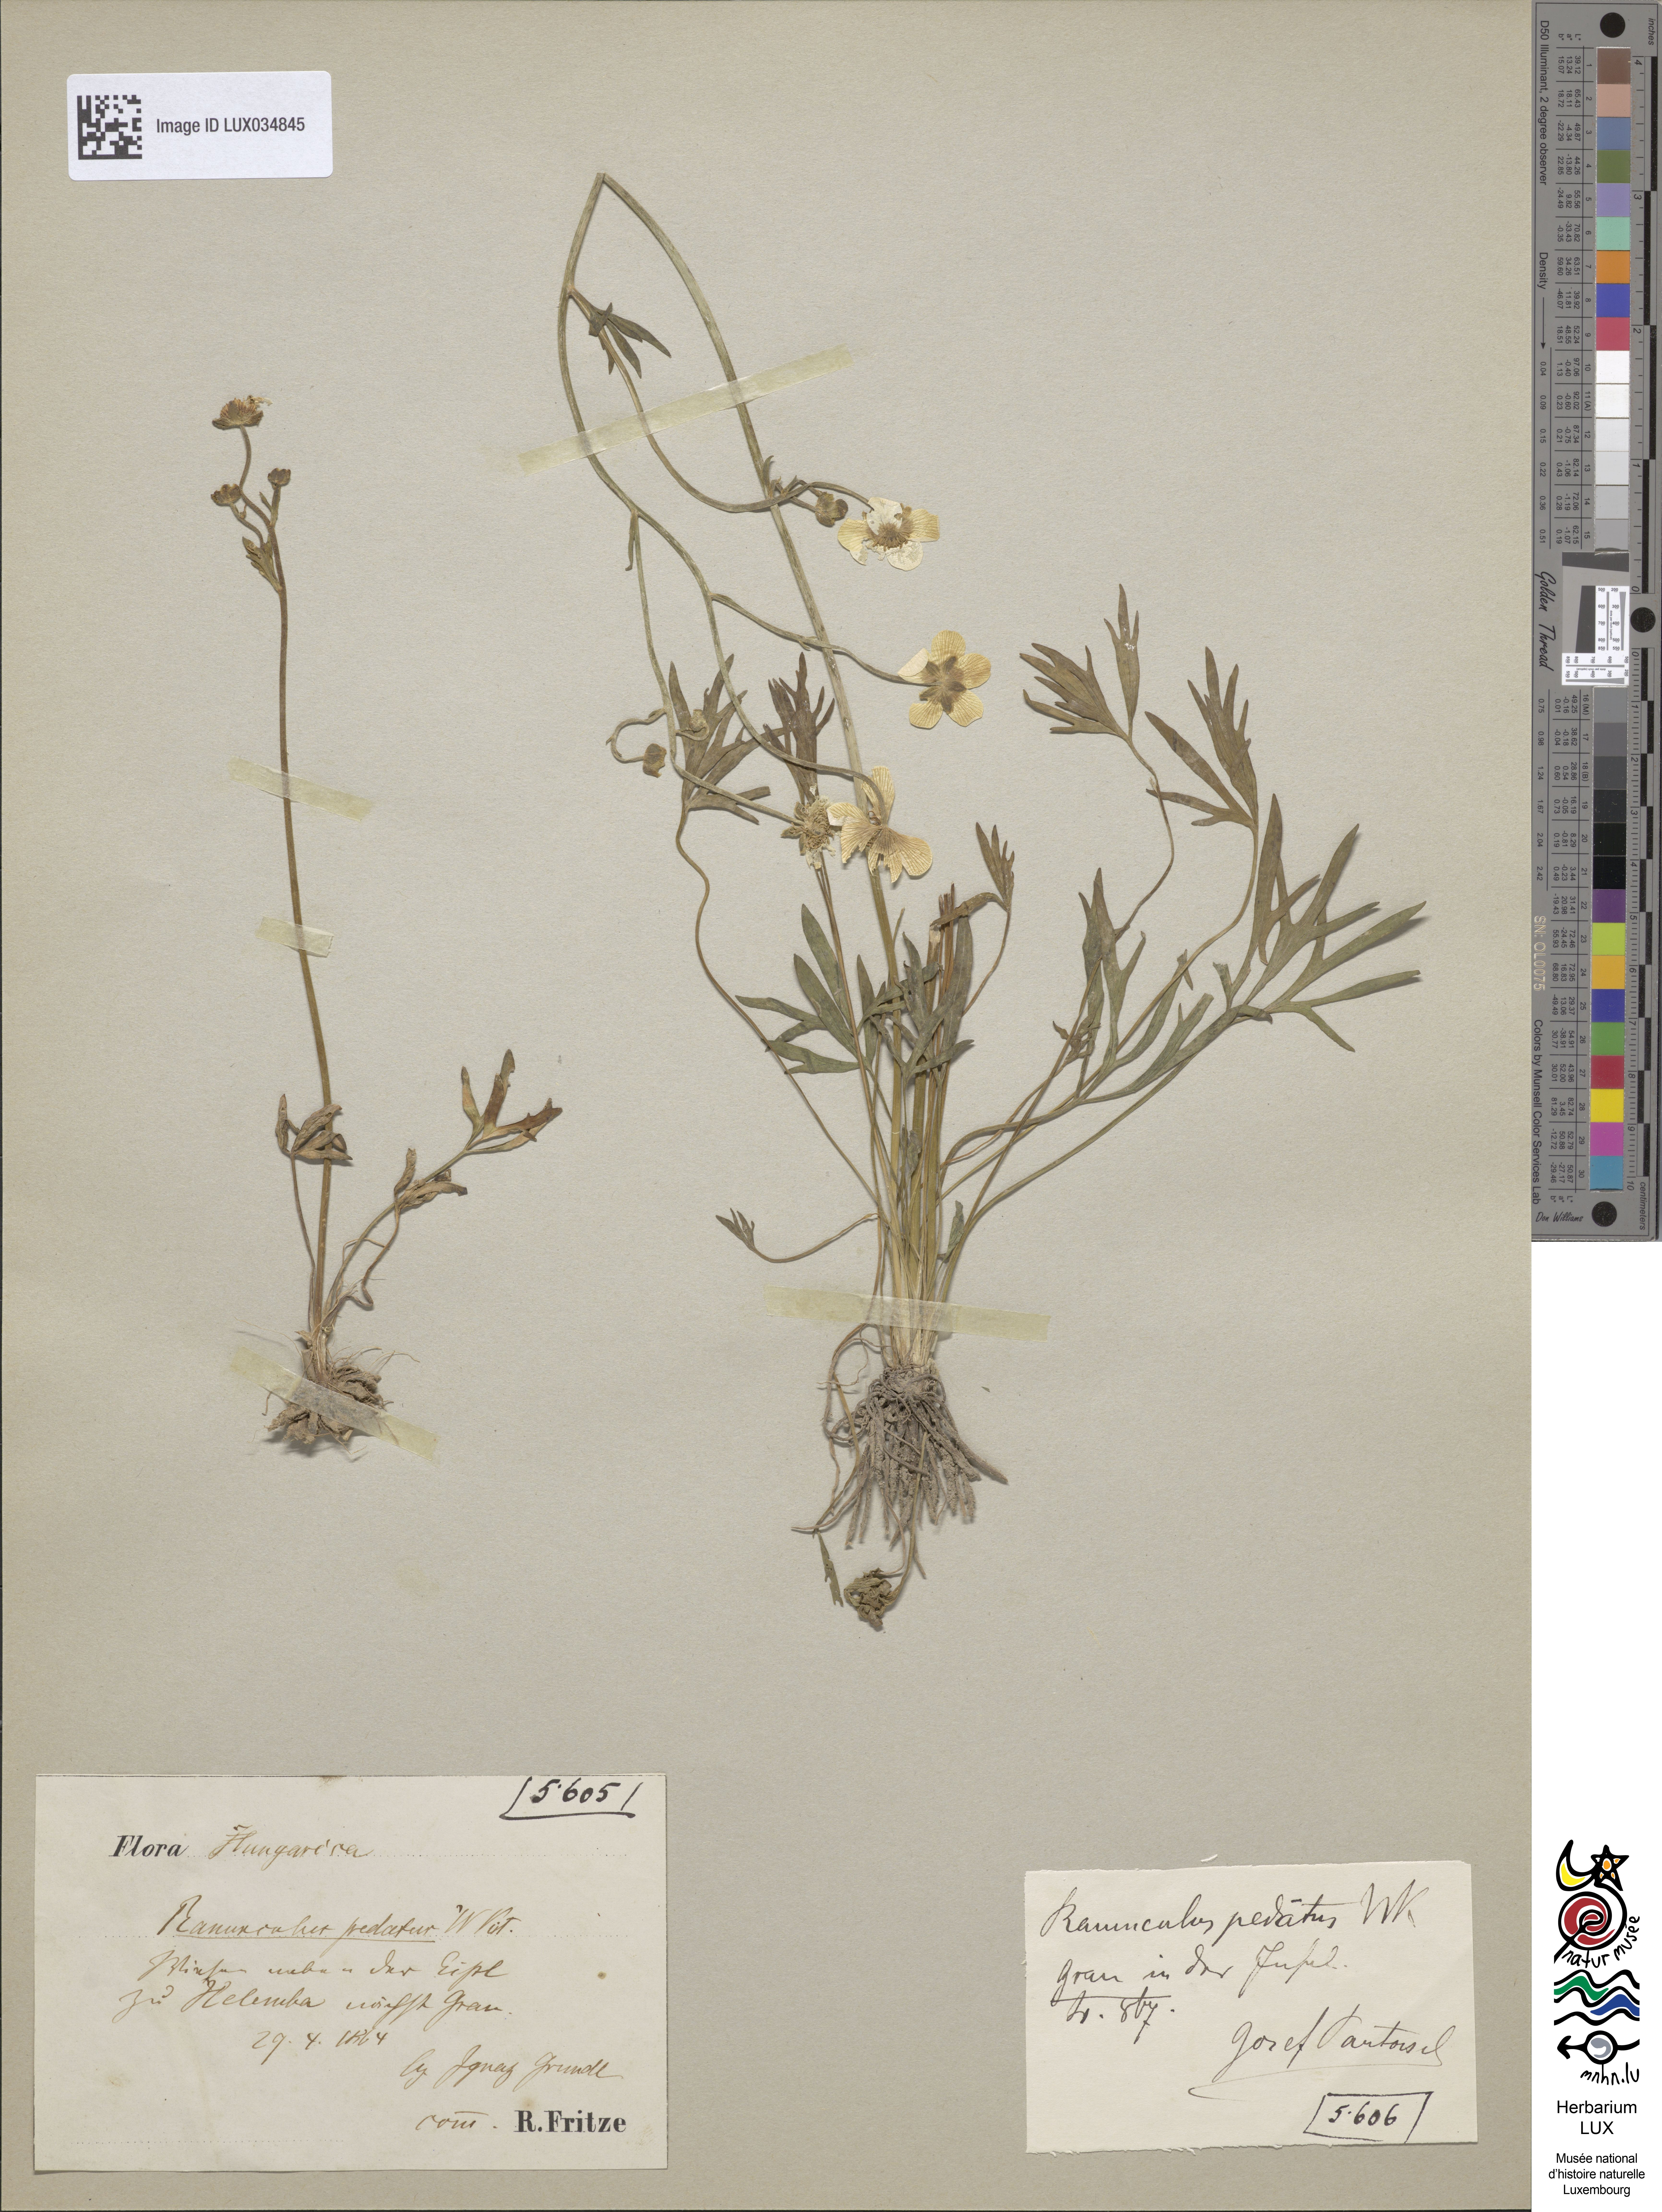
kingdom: Plantae
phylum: Tracheophyta
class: Magnoliopsida
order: Ranunculales
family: Ranunculaceae
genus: Ranunculus
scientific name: Ranunculus pedatus
